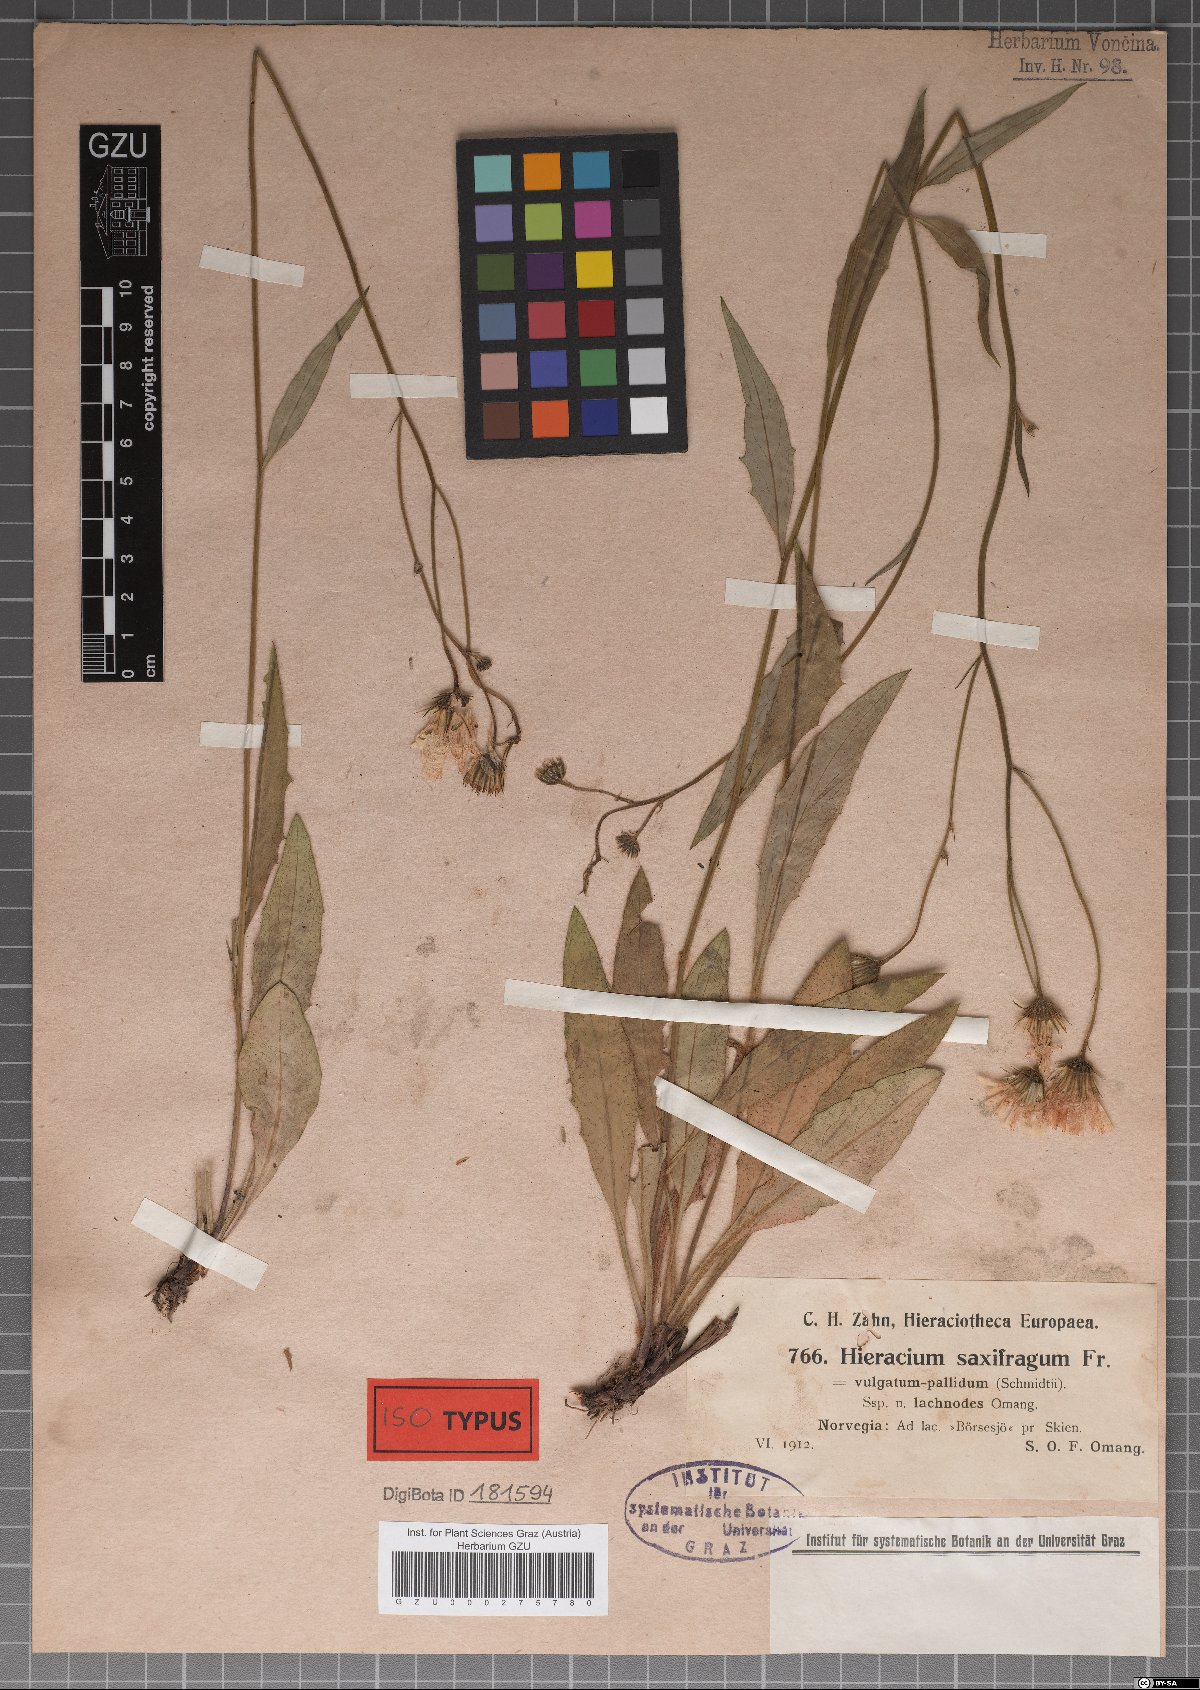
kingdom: Plantae
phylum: Tracheophyta
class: Magnoliopsida
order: Asterales
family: Asteraceae
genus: Hieracium
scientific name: Hieracium saxifragum
